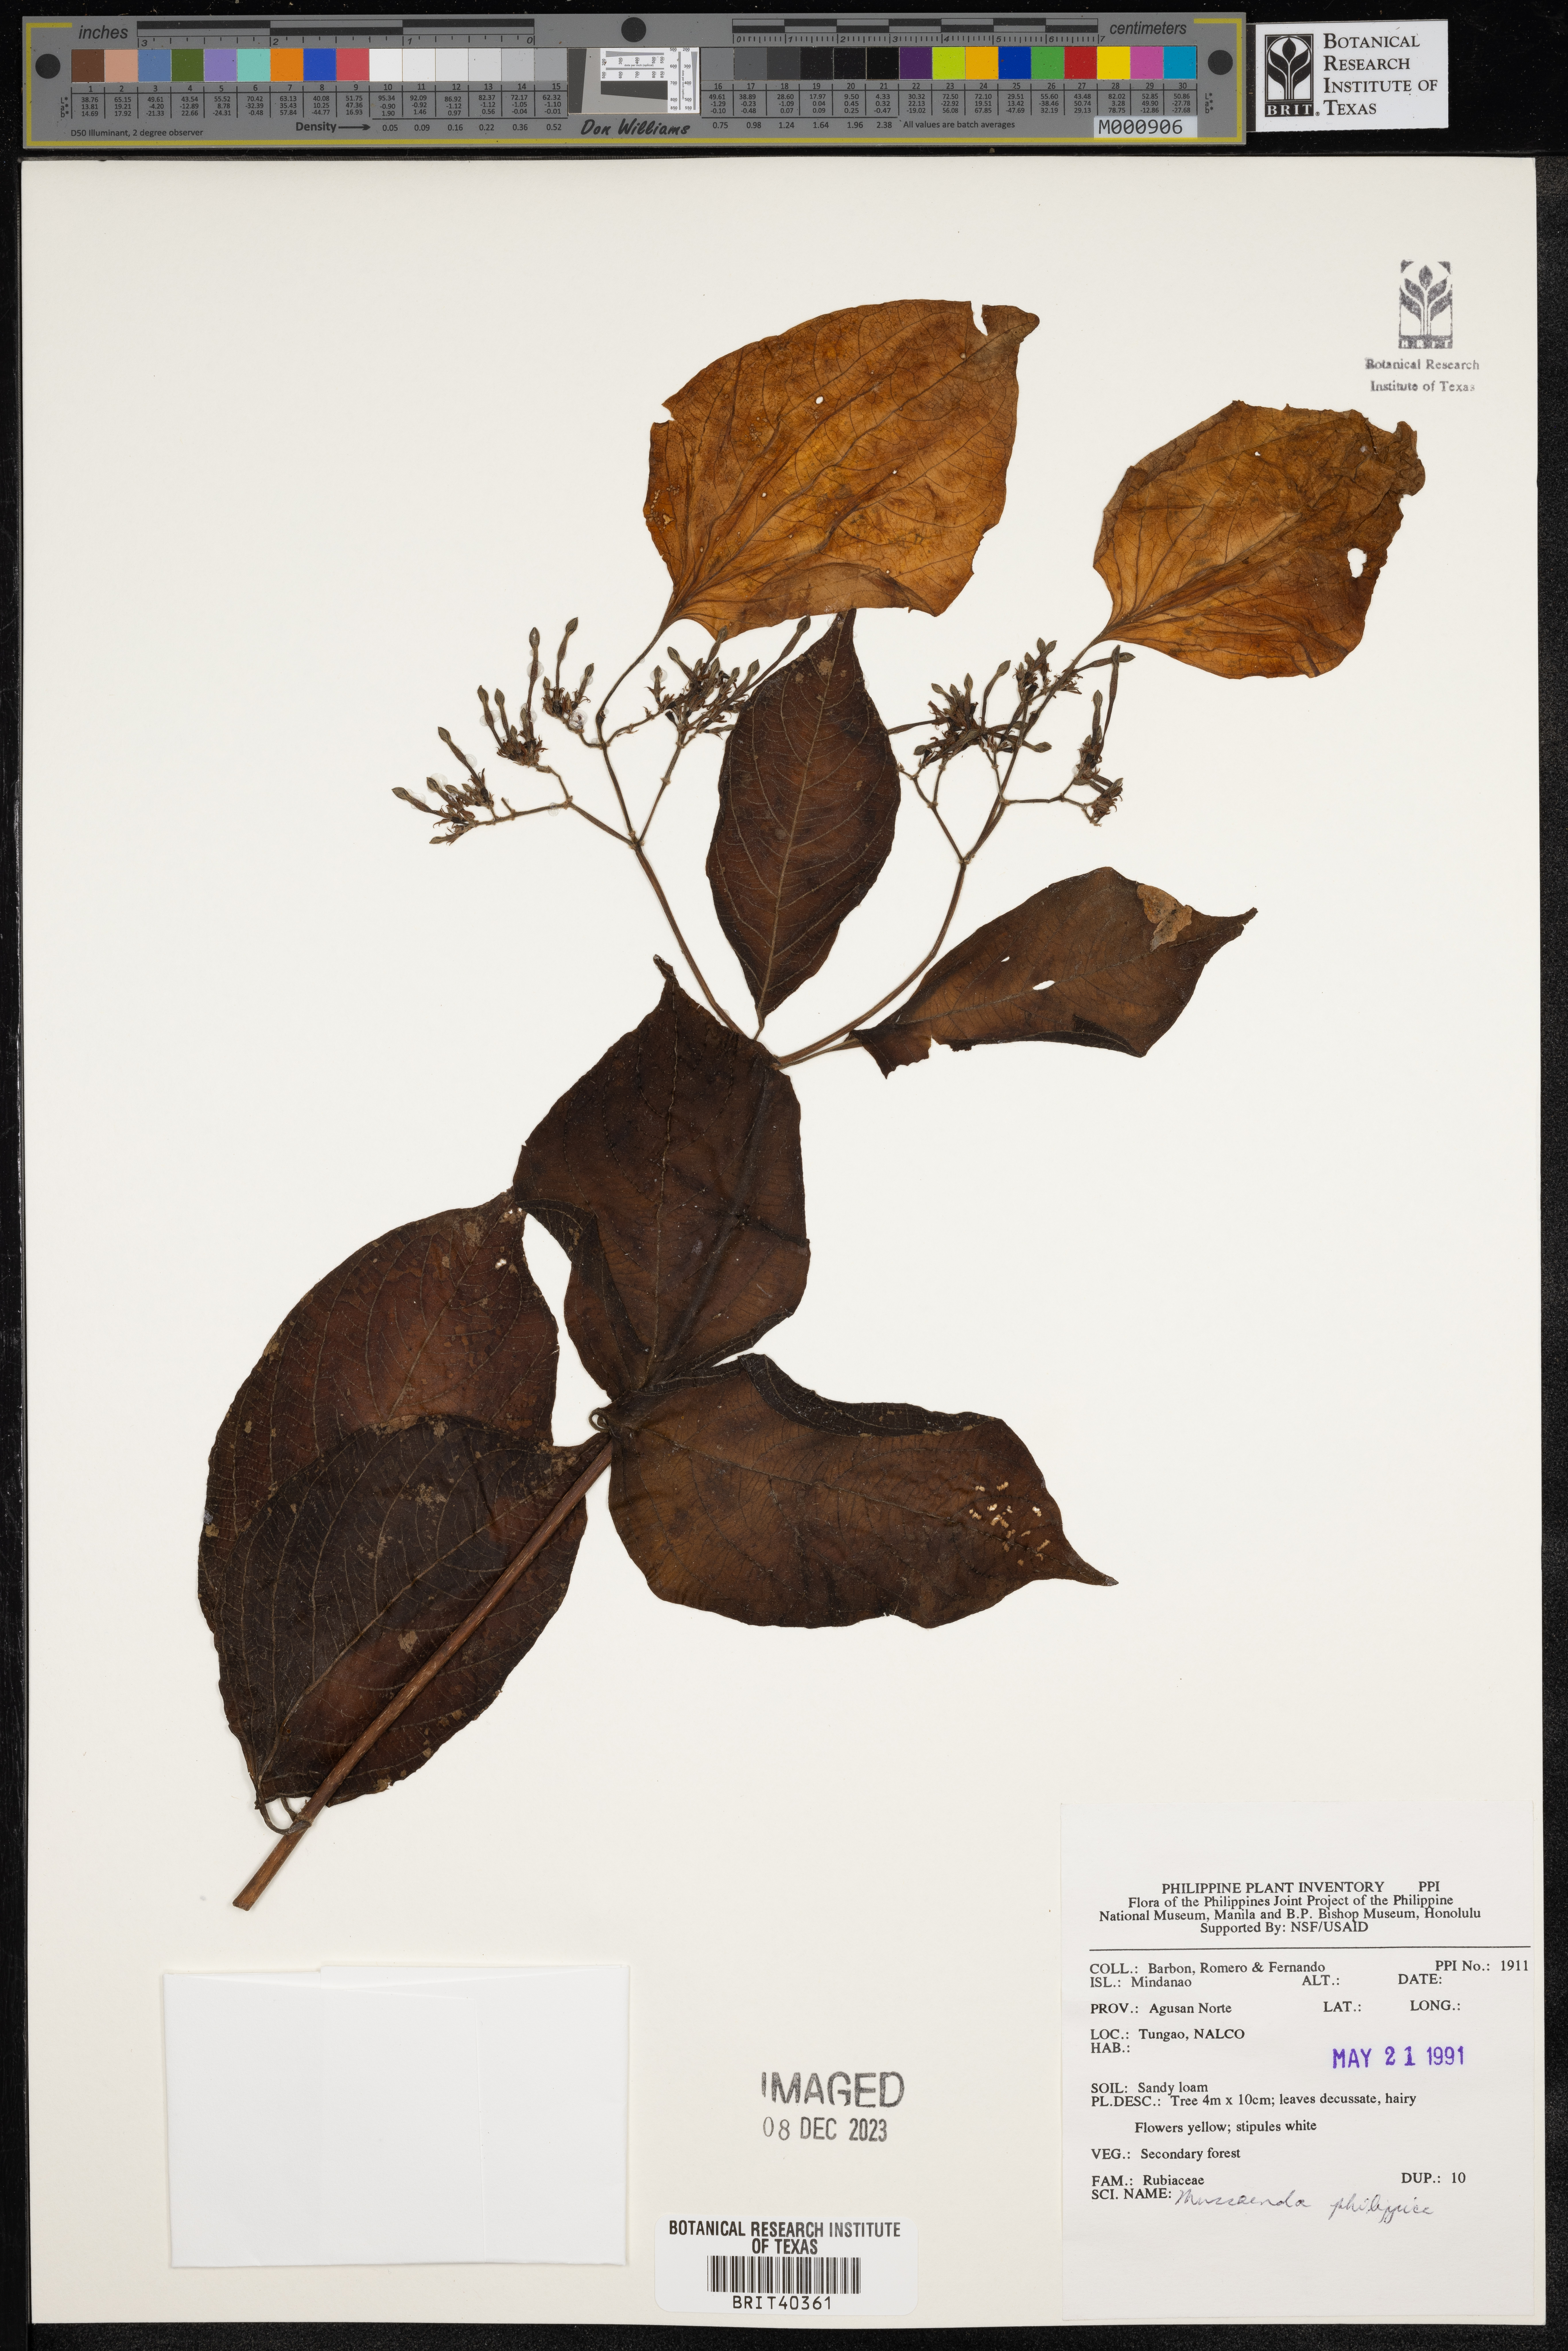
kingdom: Plantae
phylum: Tracheophyta
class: Magnoliopsida
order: Gentianales
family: Rubiaceae
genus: Mussaenda
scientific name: Mussaenda philippica
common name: Philippine mussaenda
